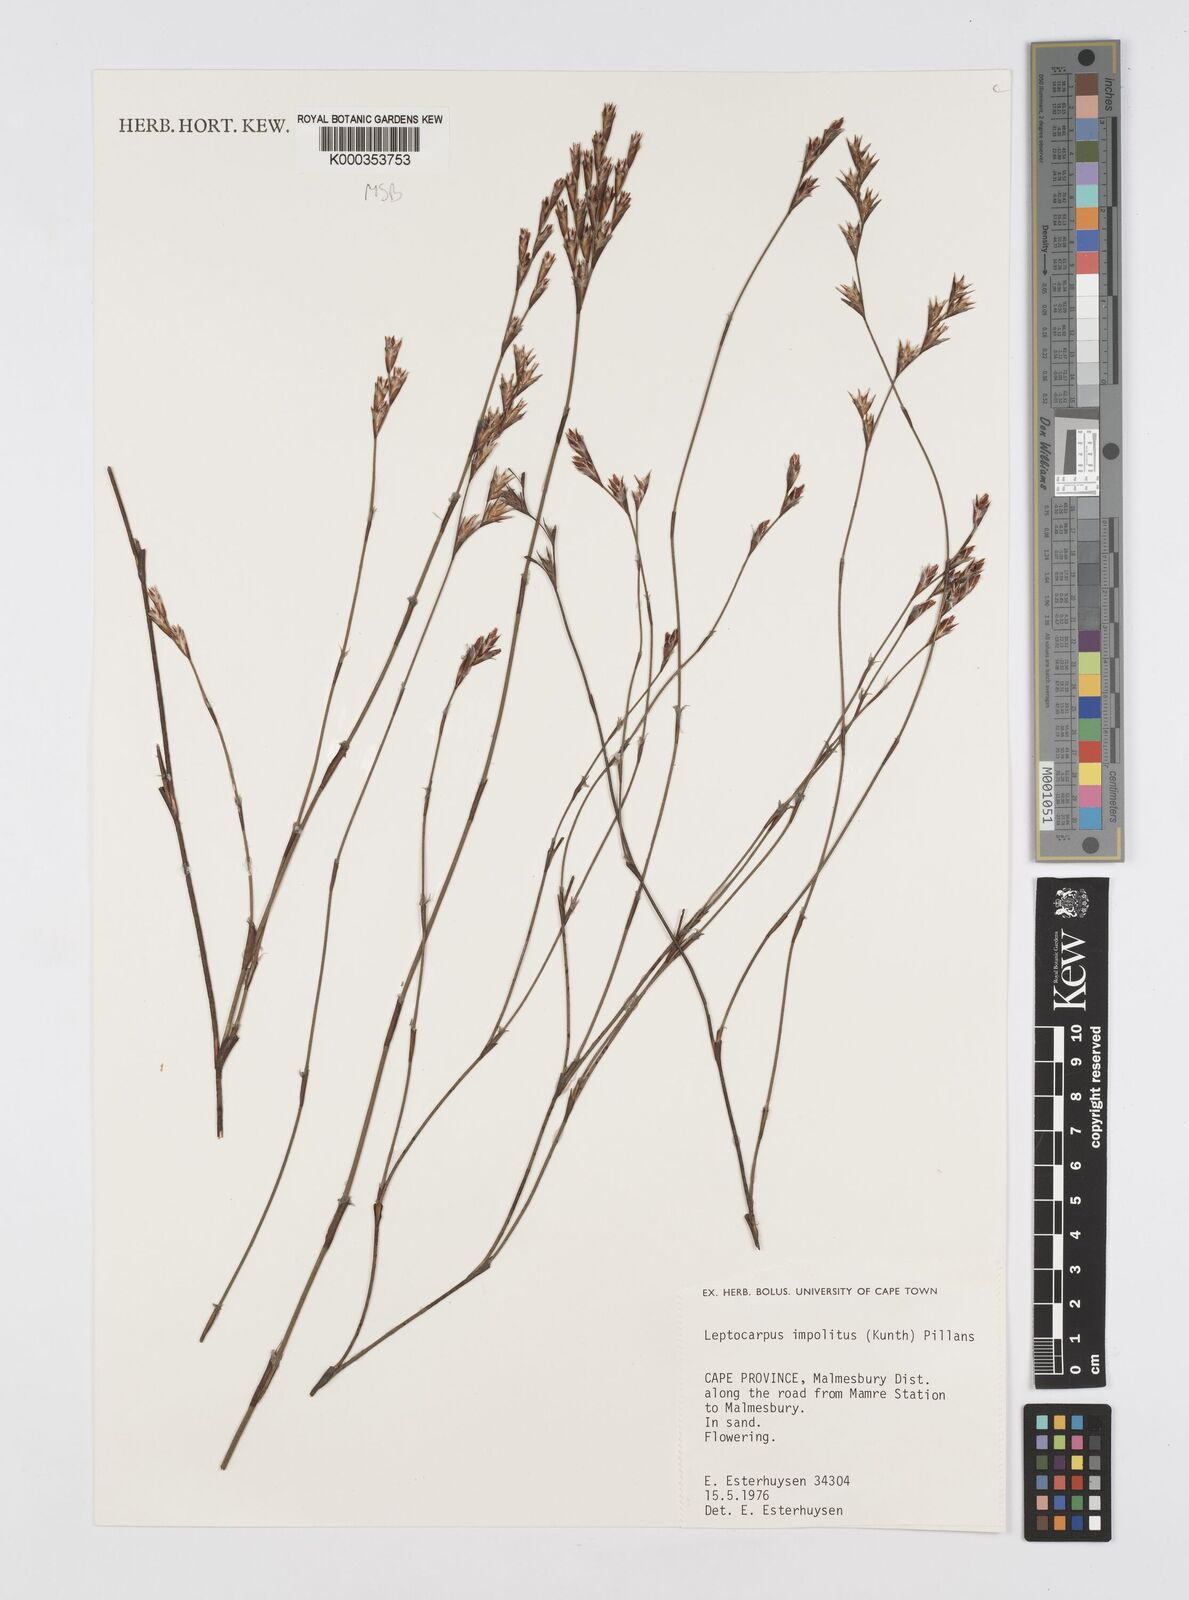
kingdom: Plantae
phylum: Tracheophyta
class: Liliopsida
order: Poales
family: Restionaceae
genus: Restio
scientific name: Restio impolitus
